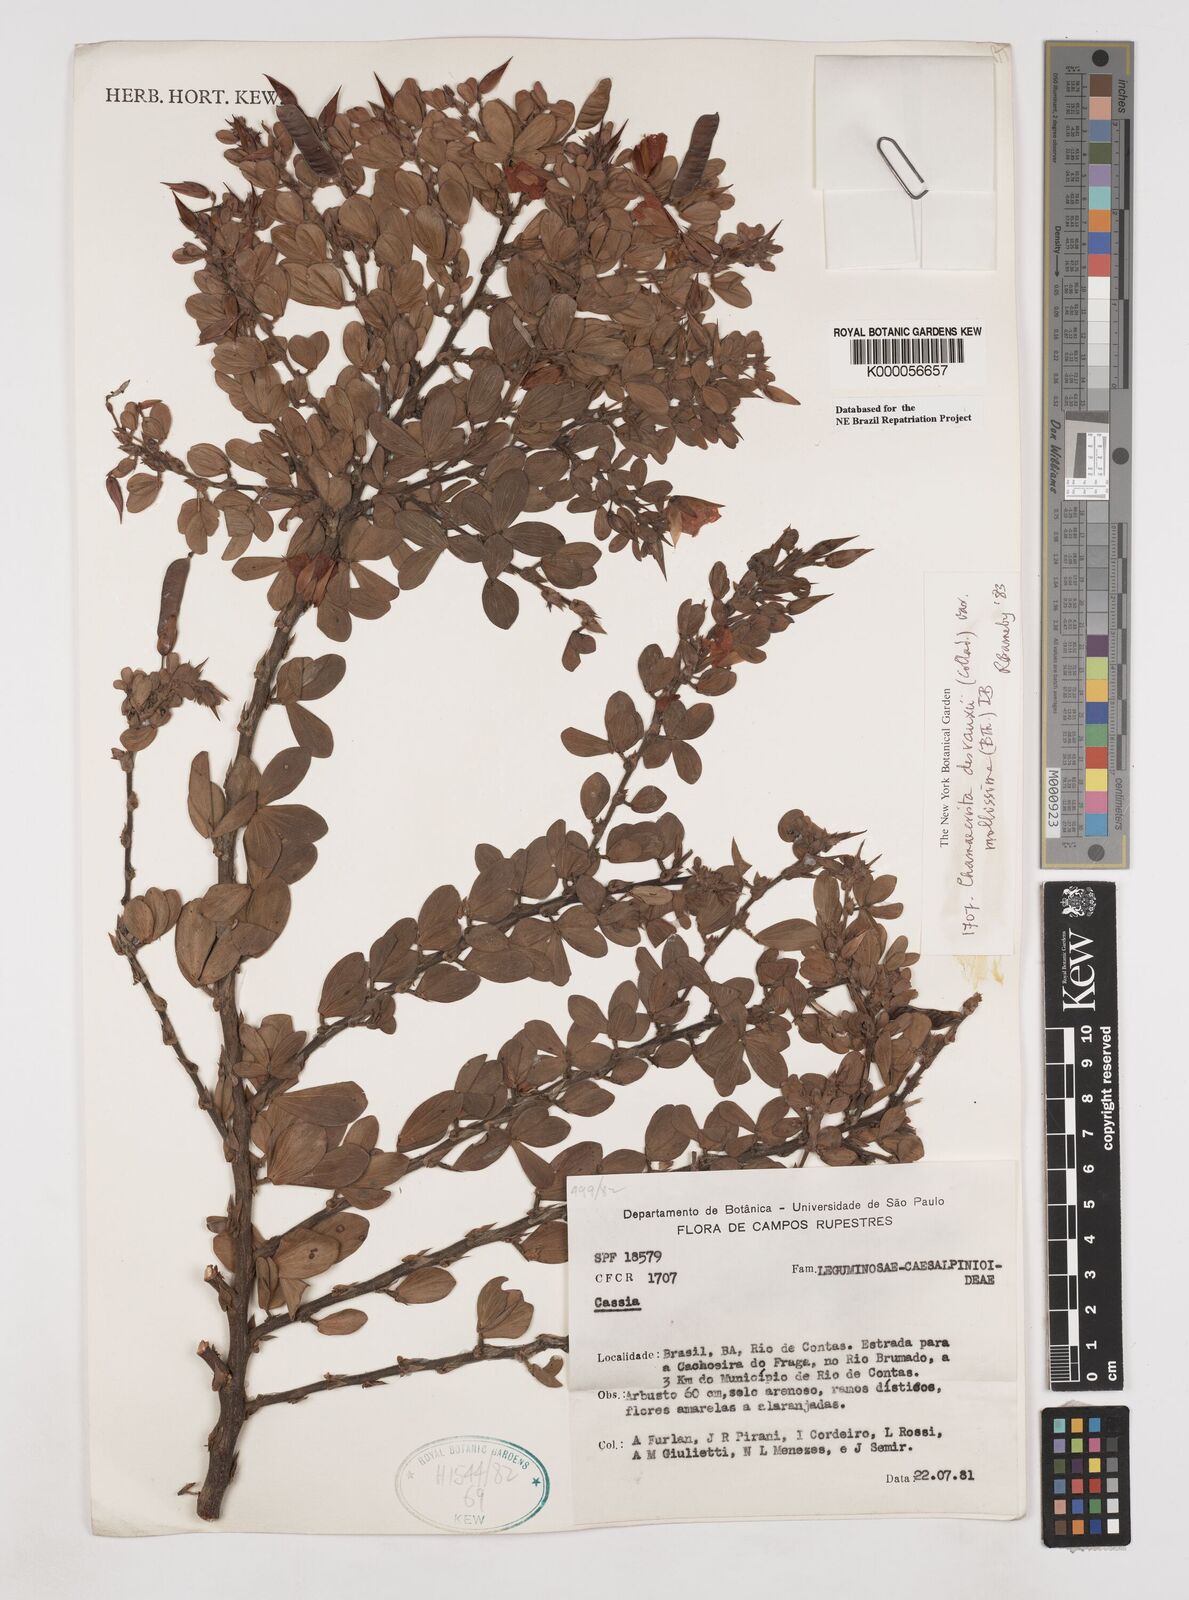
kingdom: Plantae
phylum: Tracheophyta
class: Magnoliopsida
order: Fabales
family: Fabaceae
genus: Chamaecrista
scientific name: Chamaecrista desvauxii
